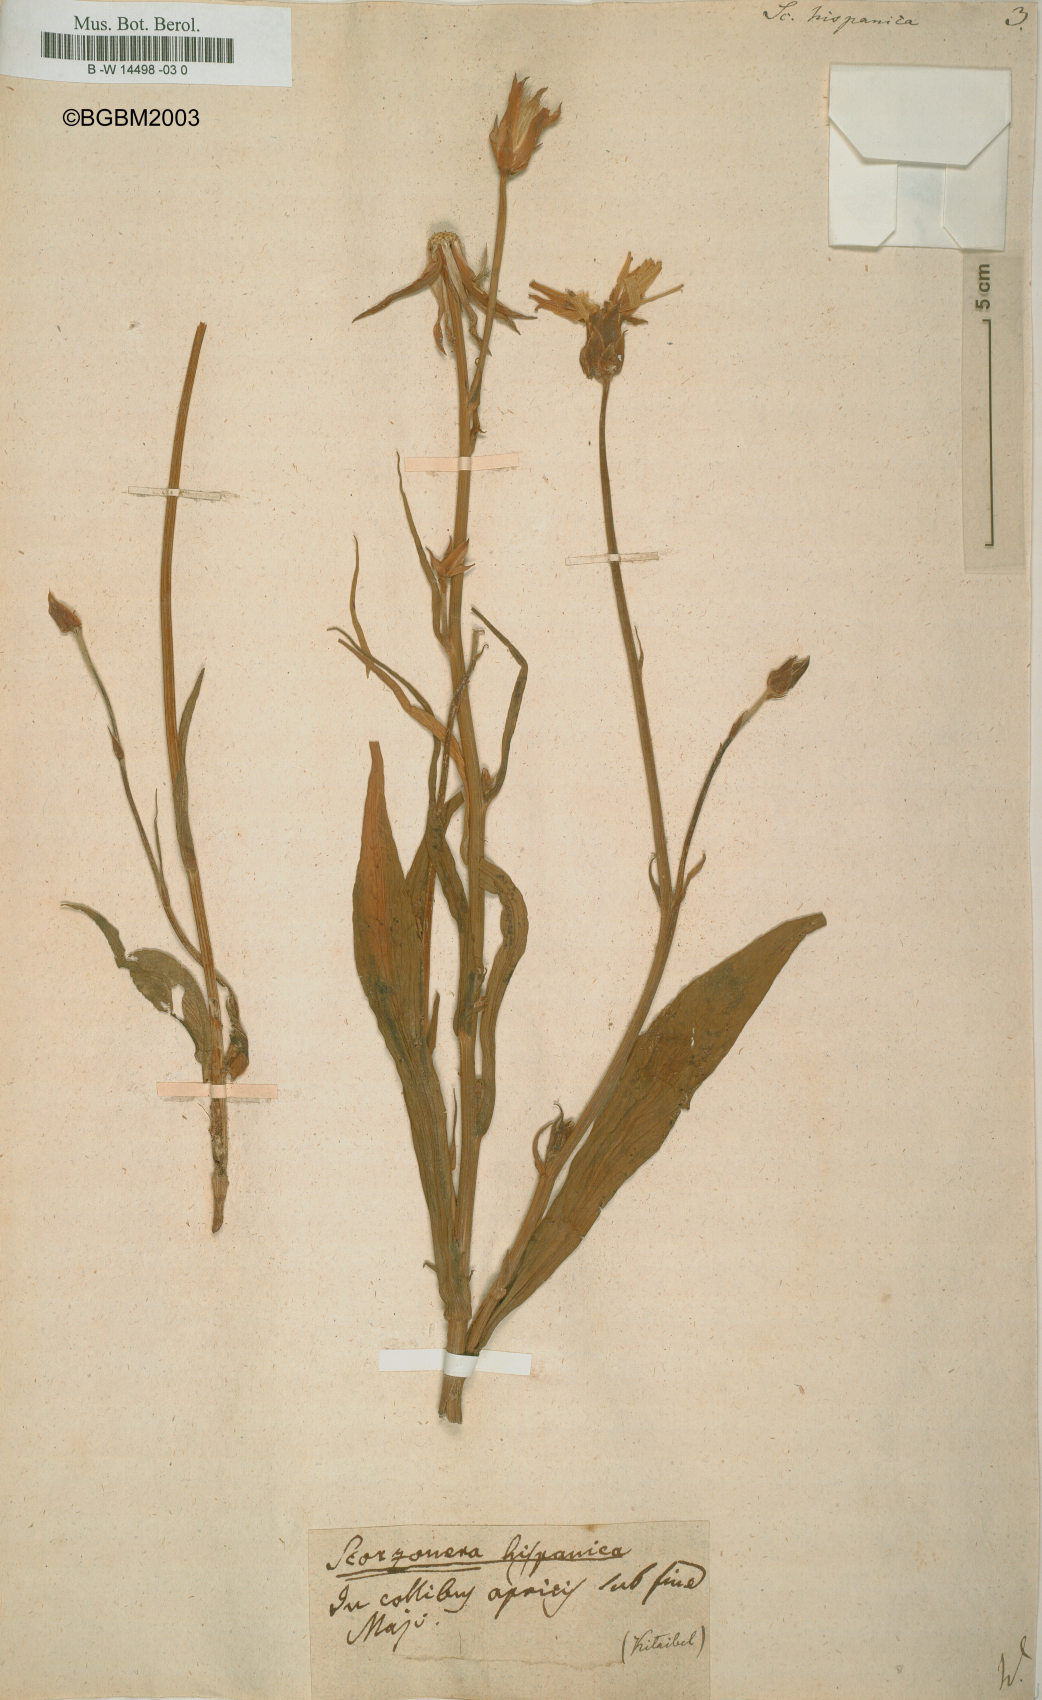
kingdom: Plantae
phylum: Tracheophyta
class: Magnoliopsida
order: Asterales
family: Asteraceae
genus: Pseudopodospermum
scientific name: Pseudopodospermum hispanicum
